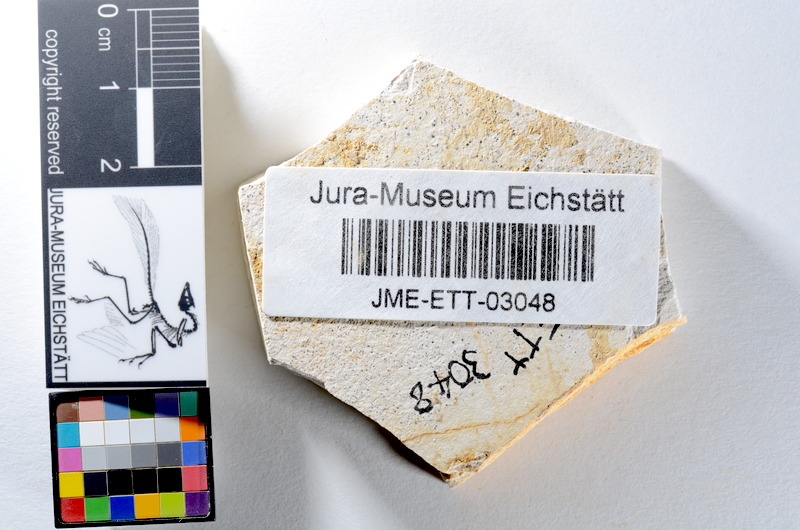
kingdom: Animalia
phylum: Chordata
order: Salmoniformes
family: Orthogonikleithridae
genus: Orthogonikleithrus
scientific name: Orthogonikleithrus hoelli
